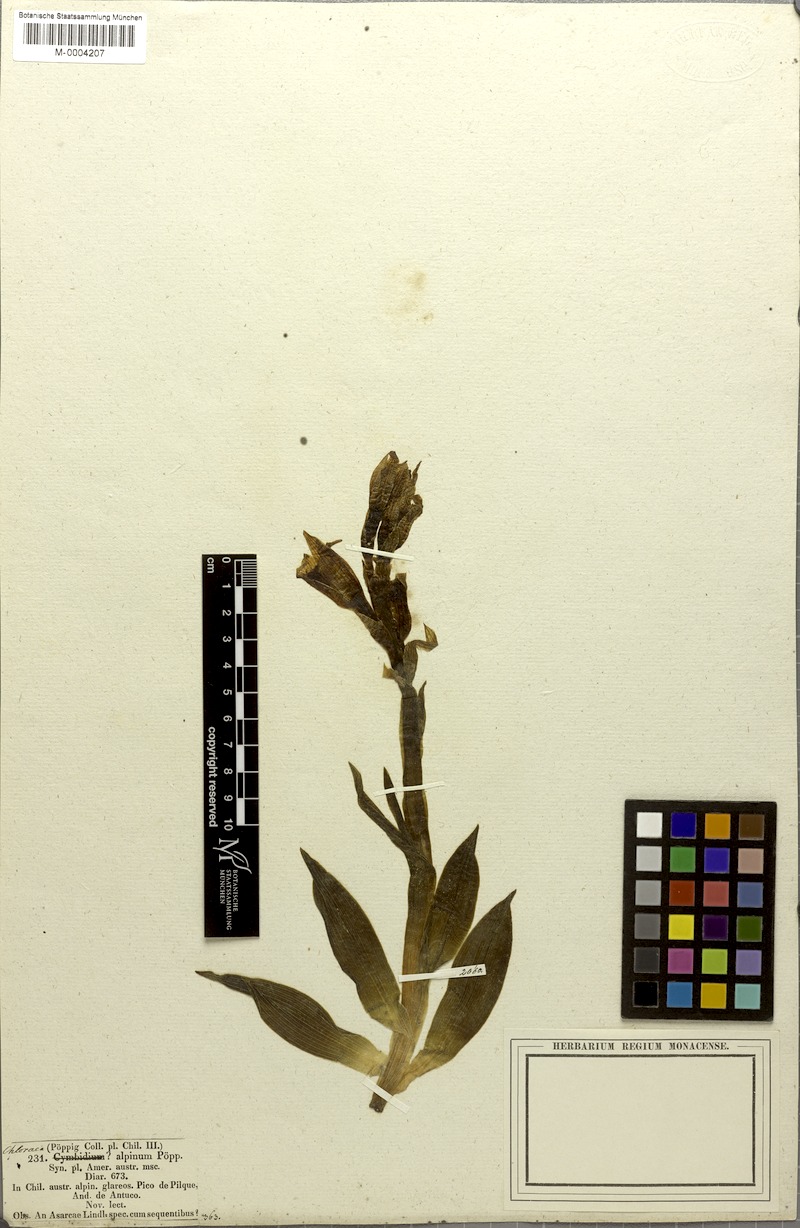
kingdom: Plantae
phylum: Tracheophyta
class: Liliopsida
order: Asparagales
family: Orchidaceae
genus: Chloraea
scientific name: Chloraea alpina
